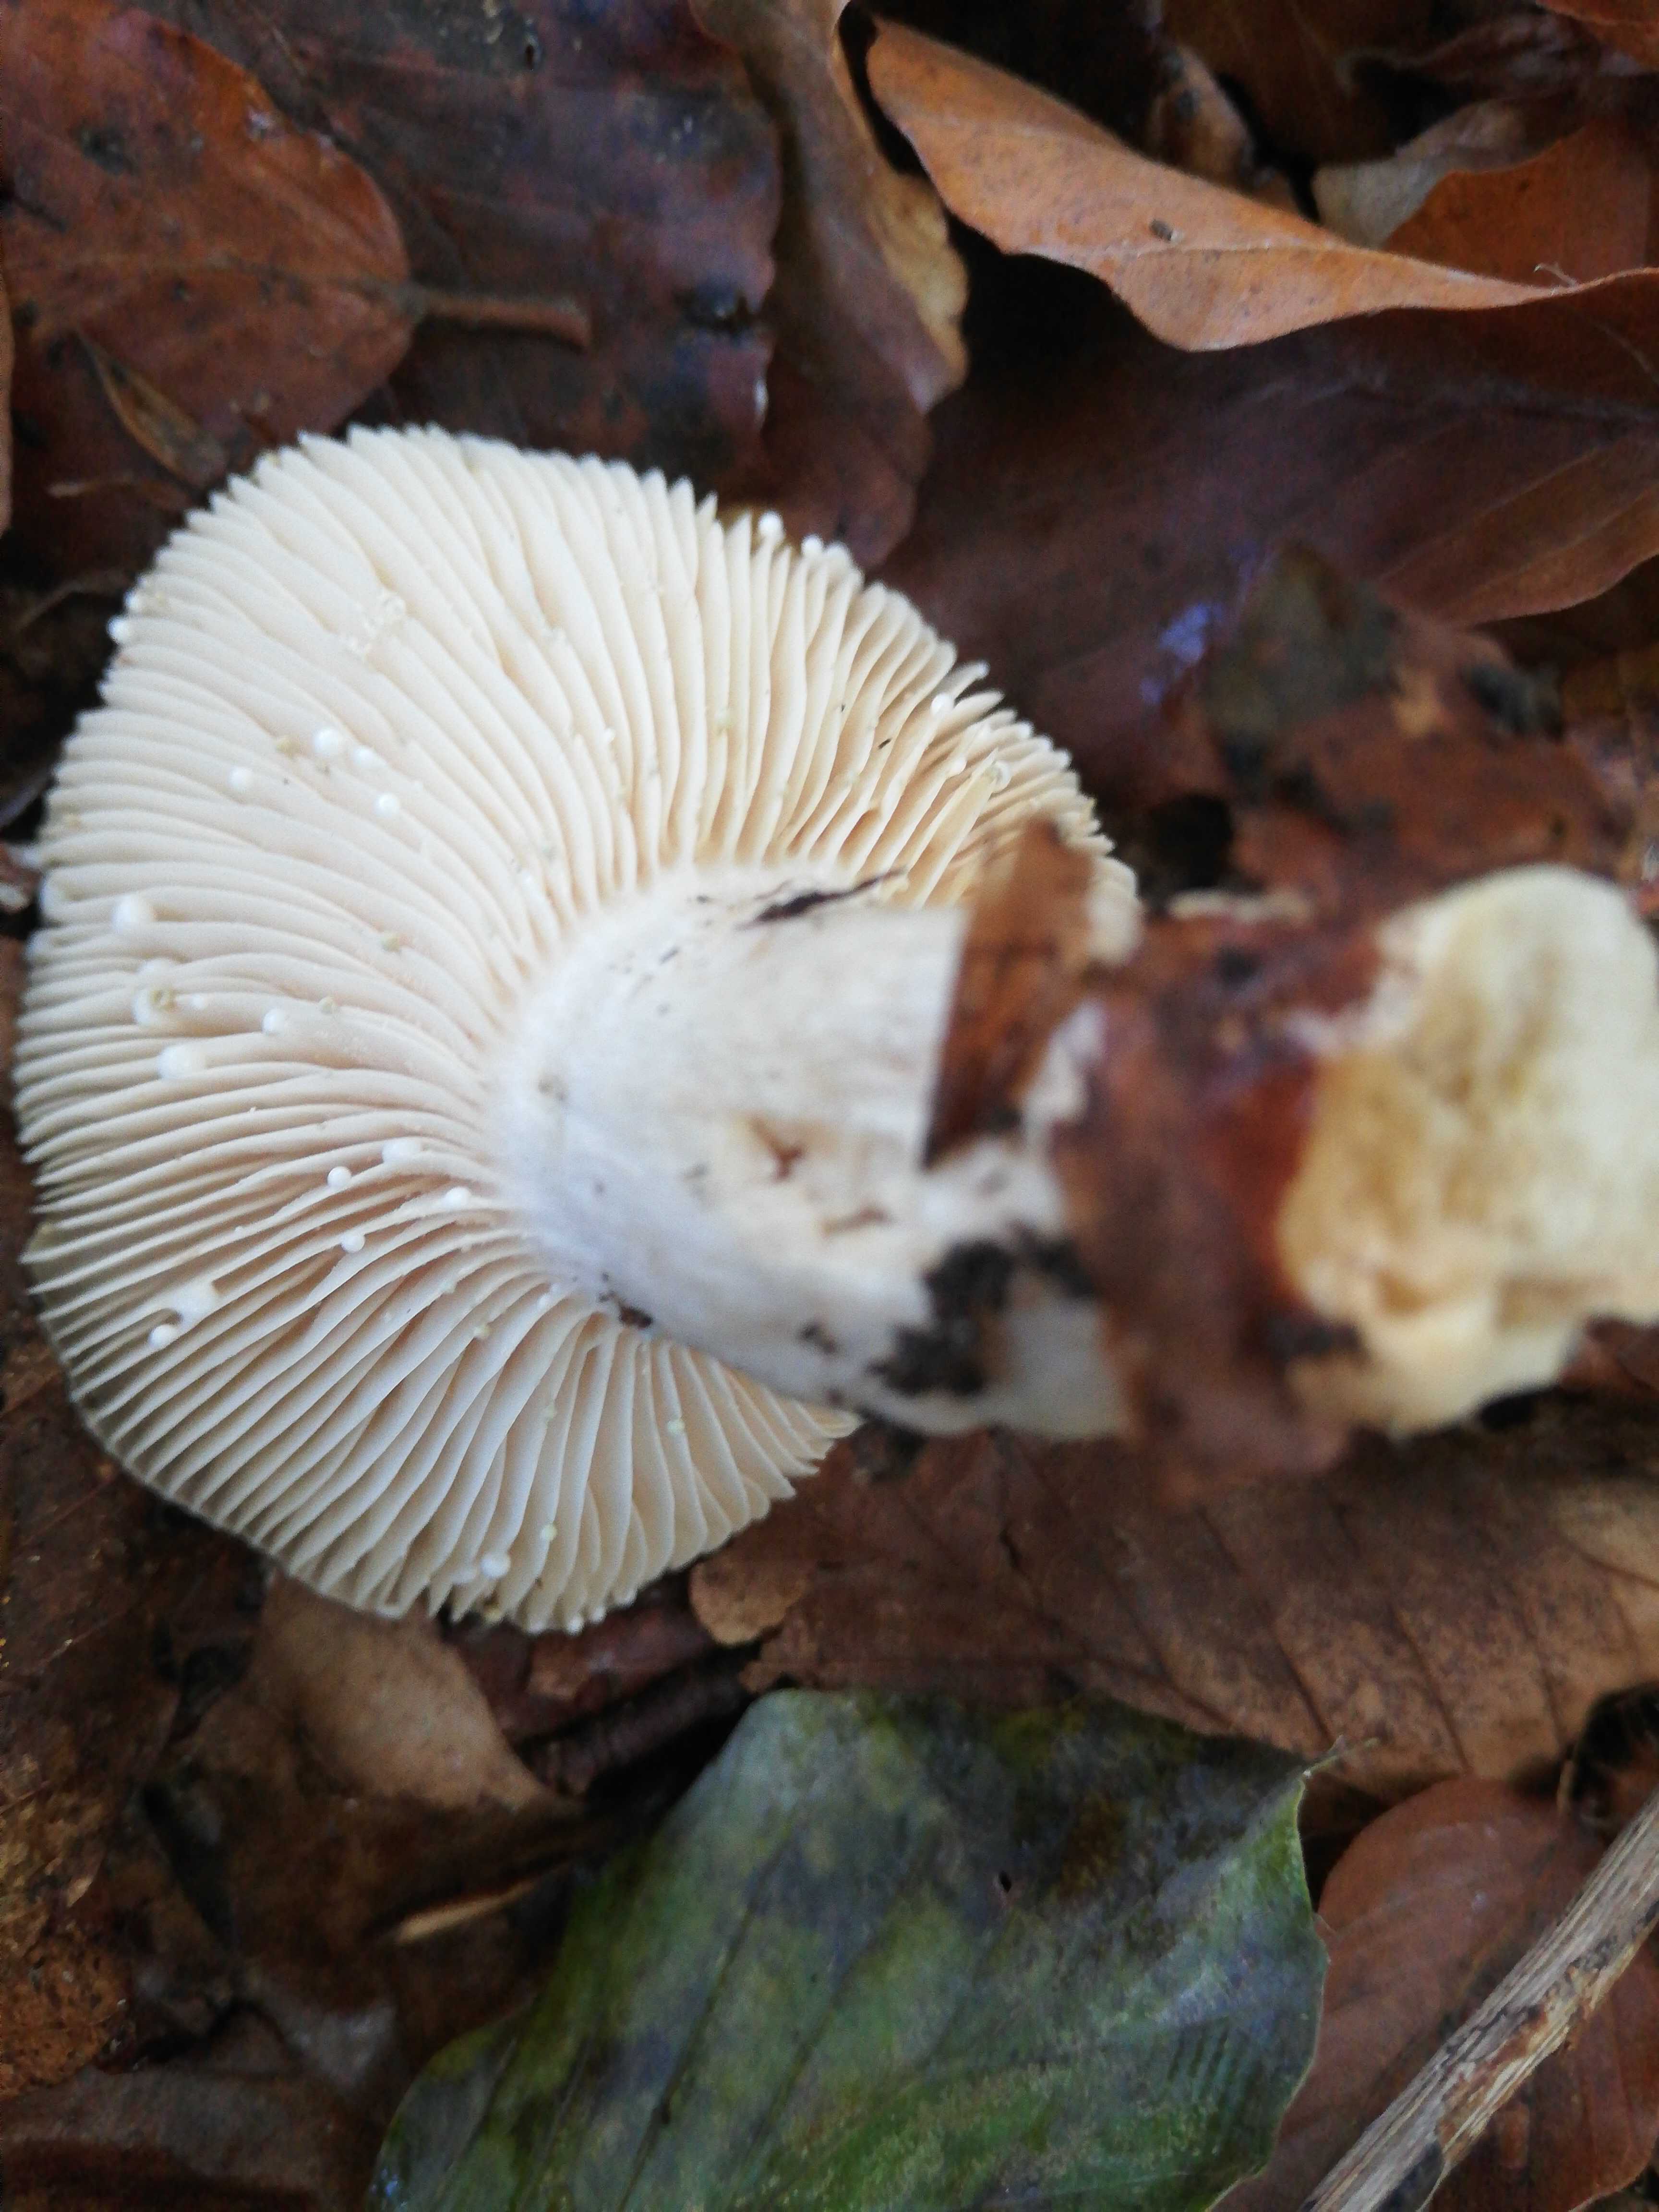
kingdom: Fungi
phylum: Basidiomycota
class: Agaricomycetes
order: Russulales
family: Russulaceae
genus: Lactarius
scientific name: Lactarius
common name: mælkehat
